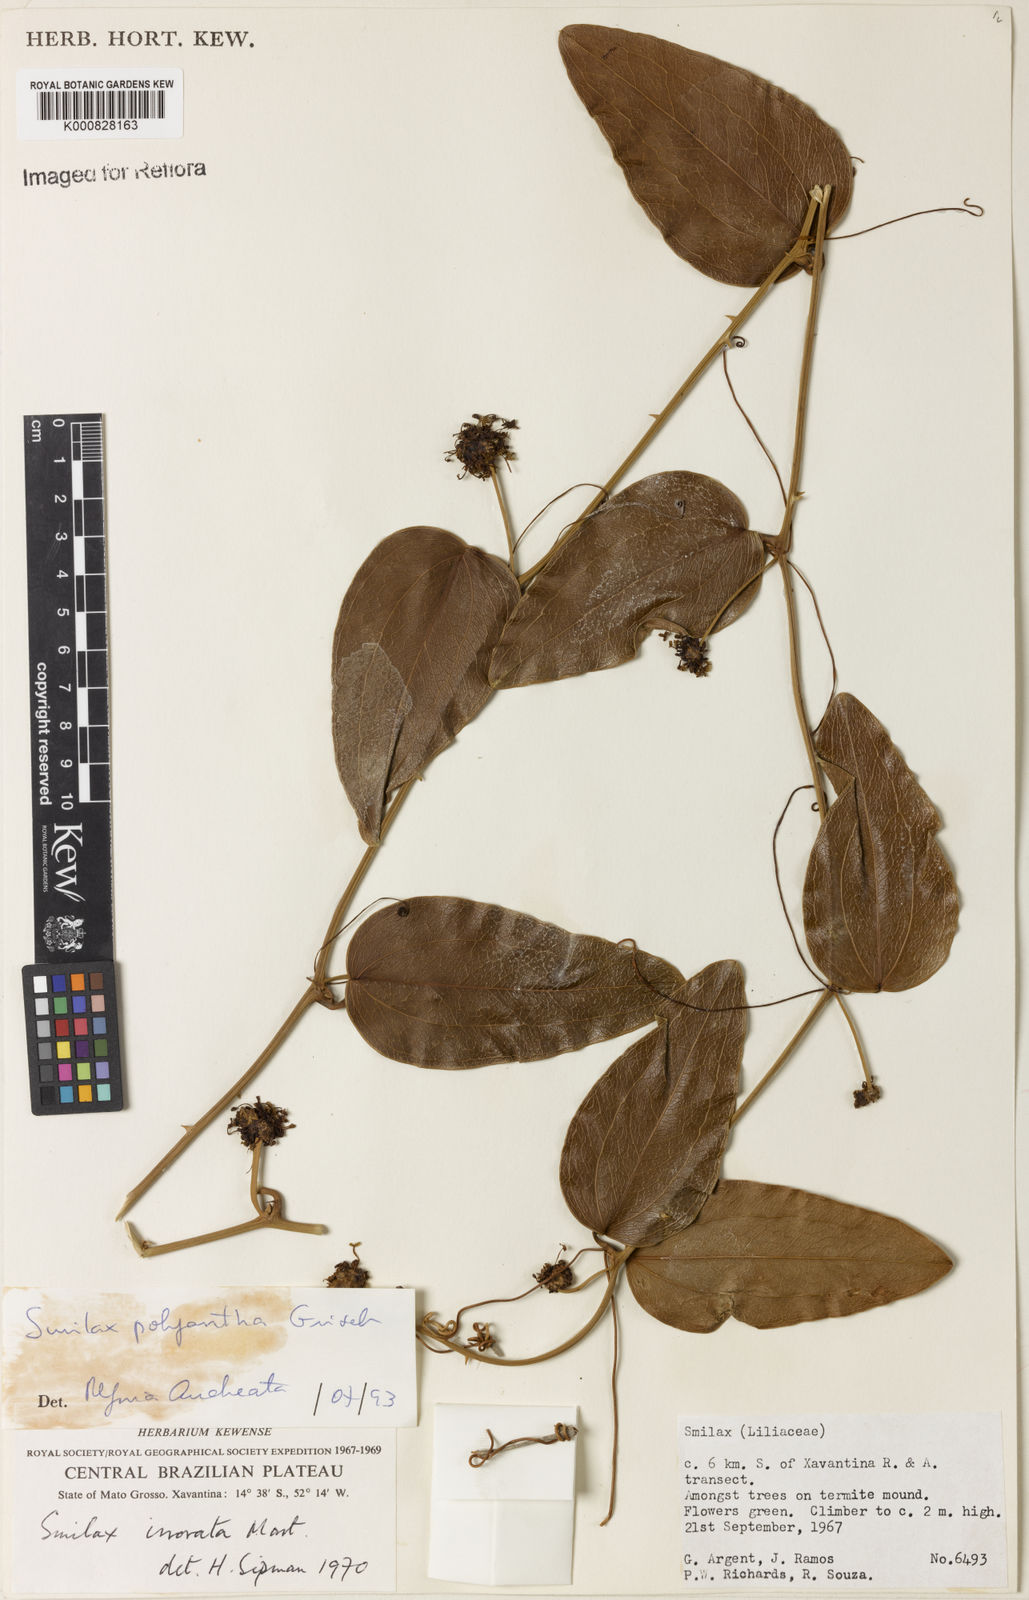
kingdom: Plantae
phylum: Tracheophyta
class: Liliopsida
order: Liliales
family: Smilacaceae
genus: Smilax
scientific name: Smilax polyantha
